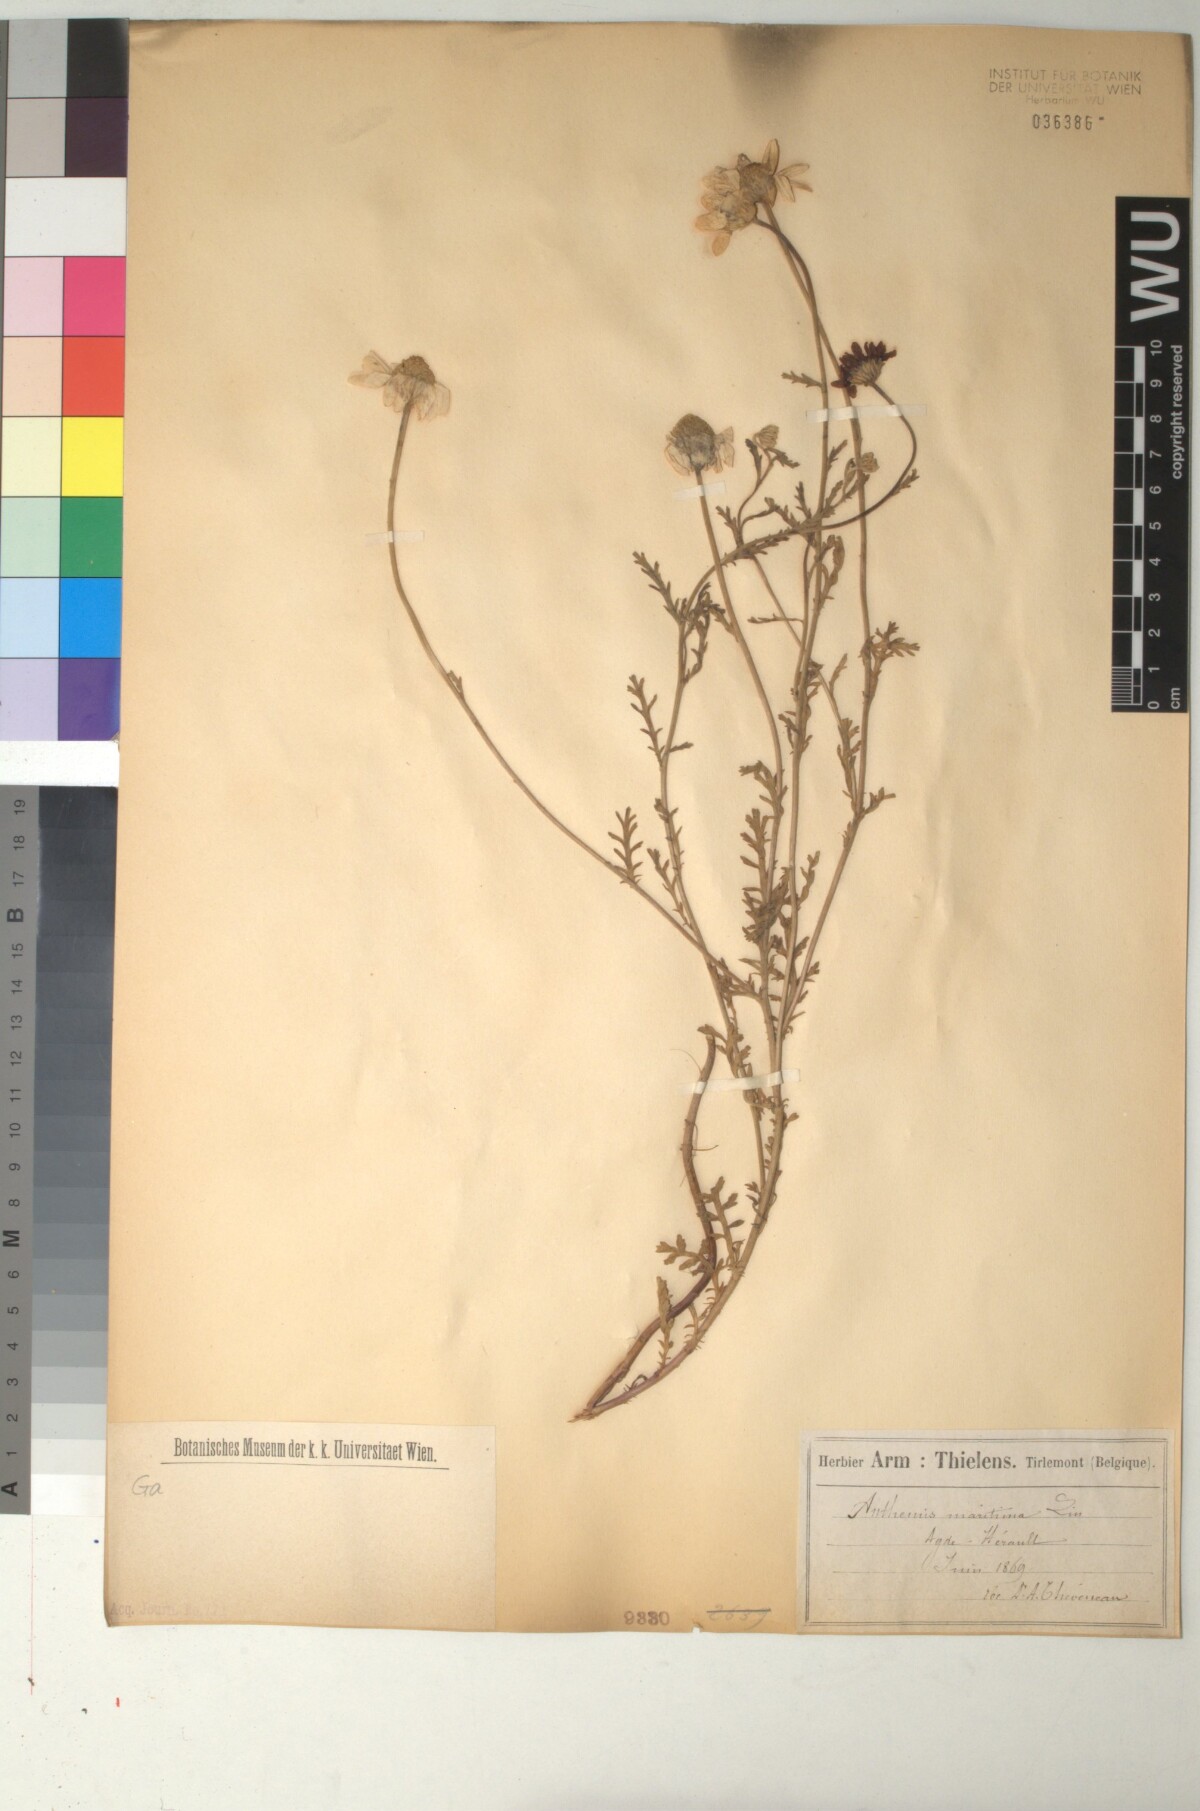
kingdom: Plantae
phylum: Tracheophyta
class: Magnoliopsida
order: Asterales
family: Asteraceae
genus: Anthemis
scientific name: Anthemis maritima
